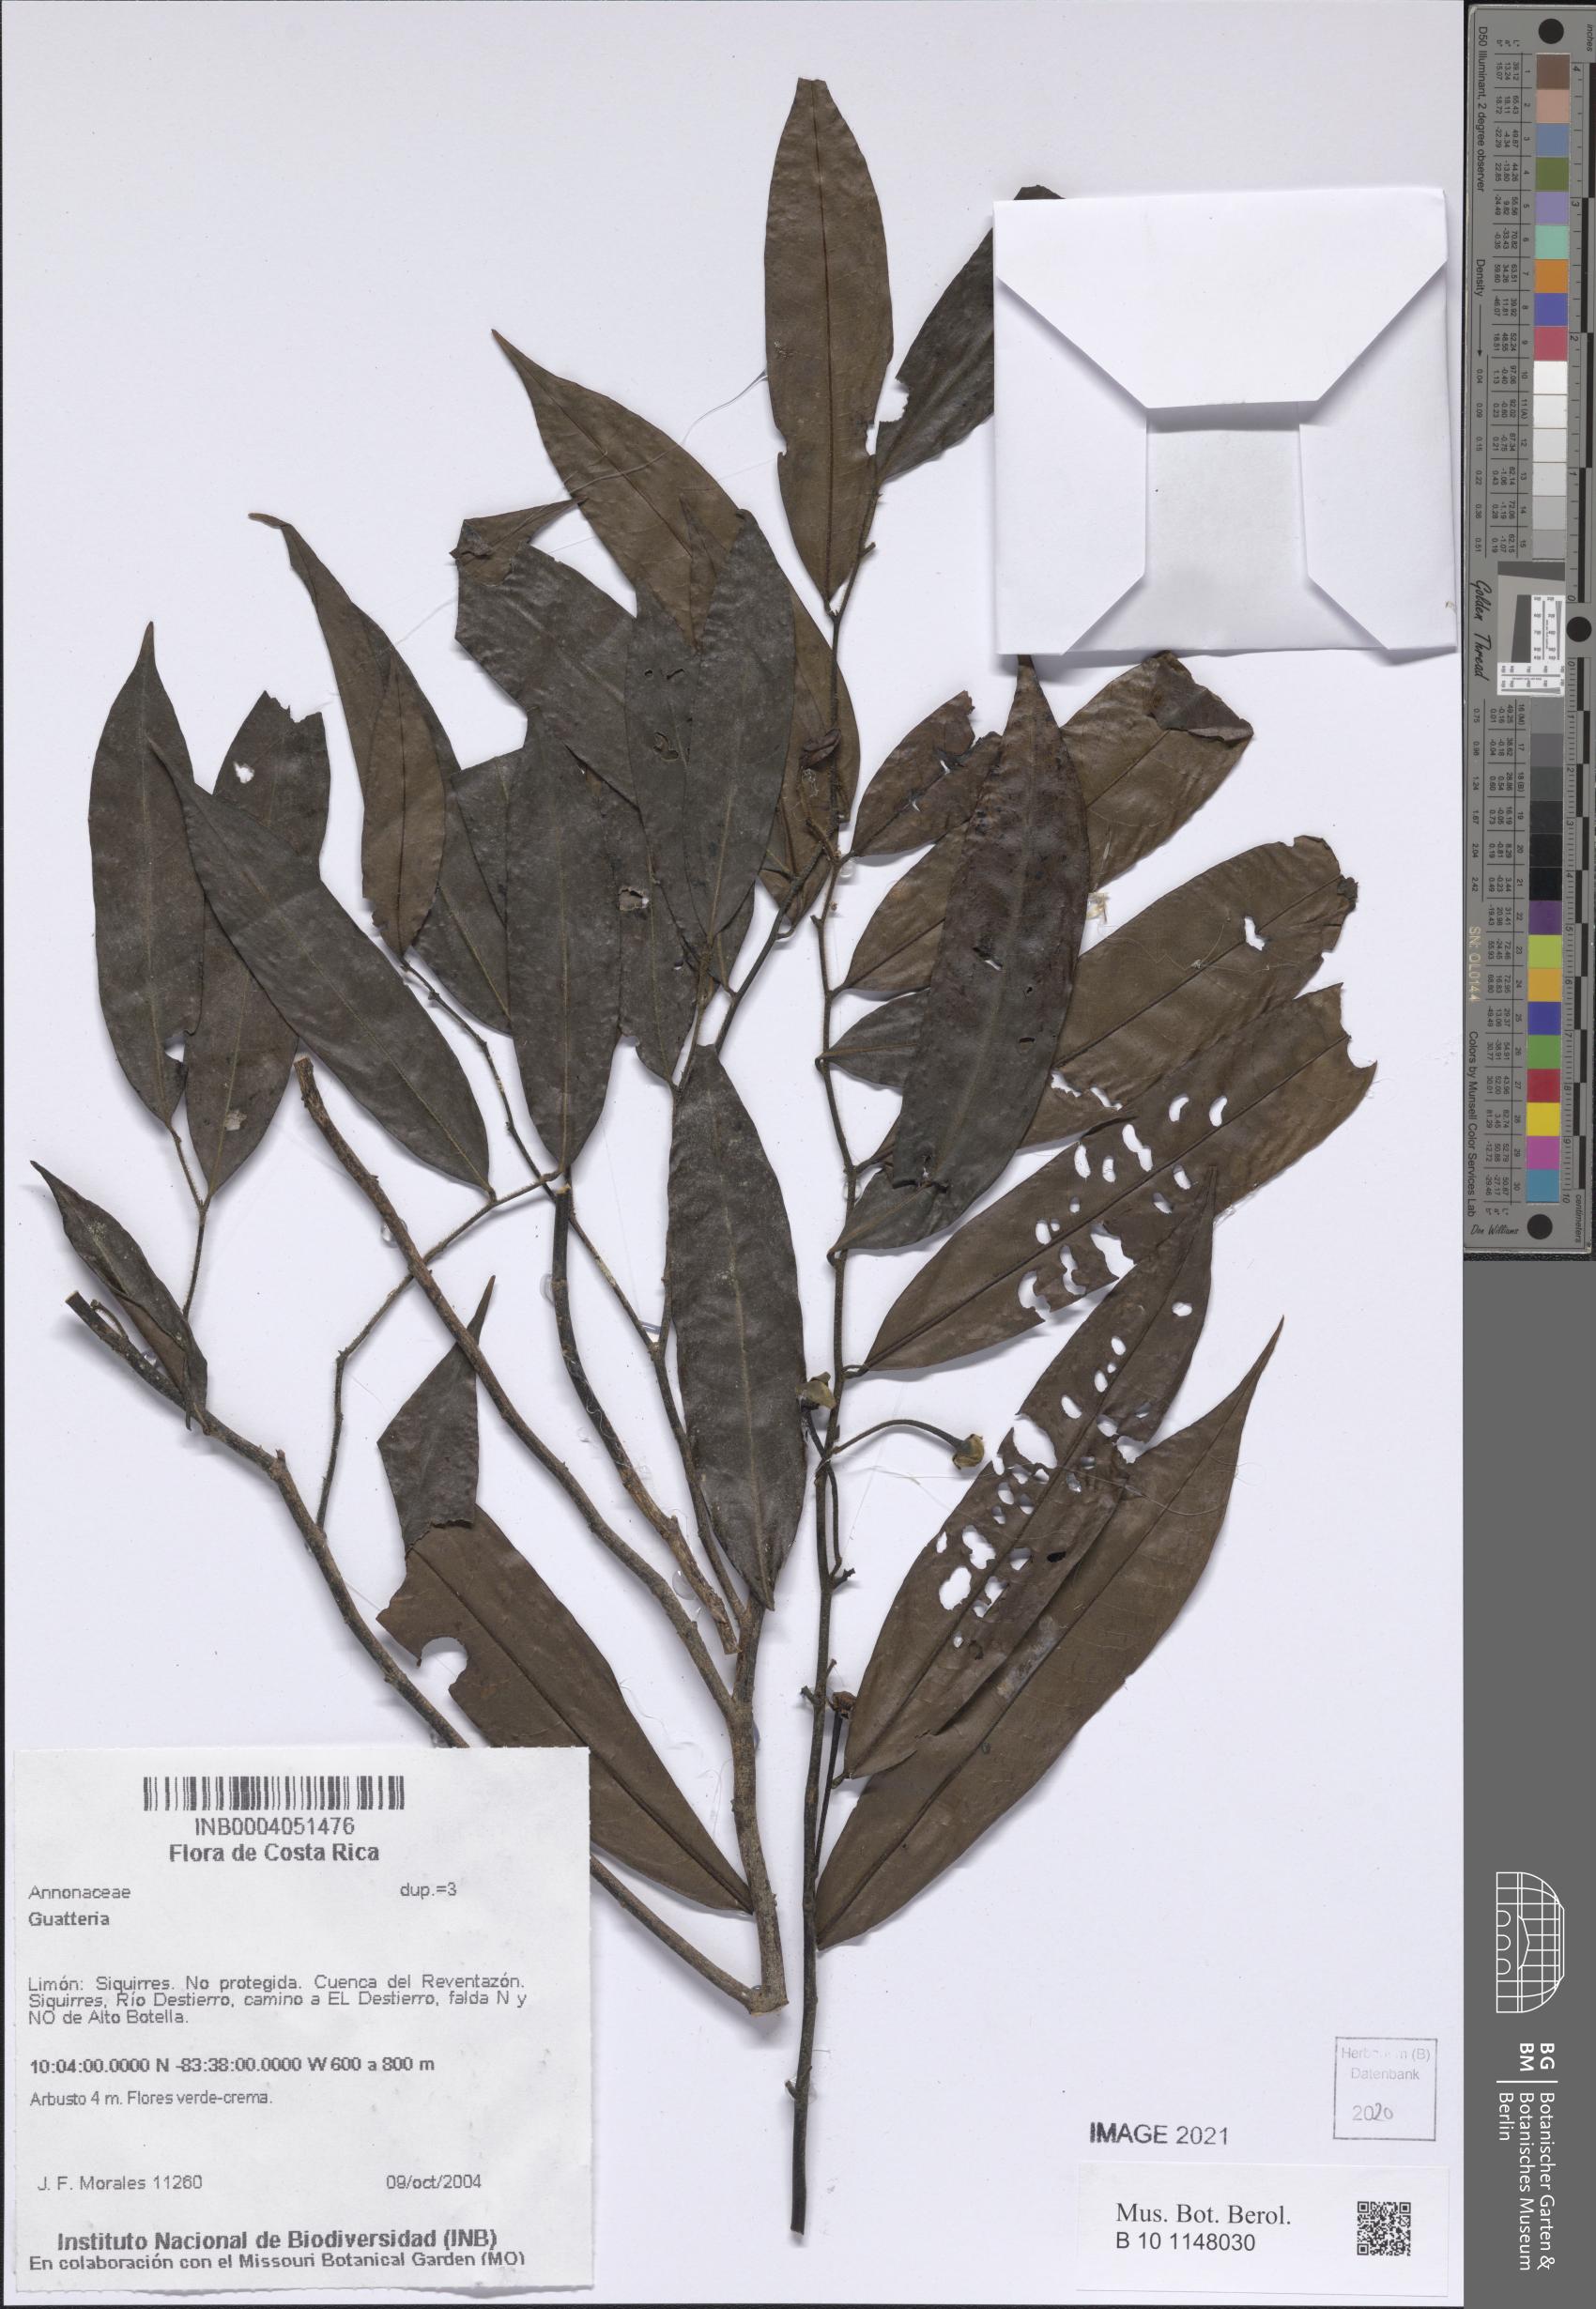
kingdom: Plantae
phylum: Tracheophyta
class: Magnoliopsida
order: Magnoliales
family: Annonaceae
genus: Guatteria
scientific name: Guatteria
